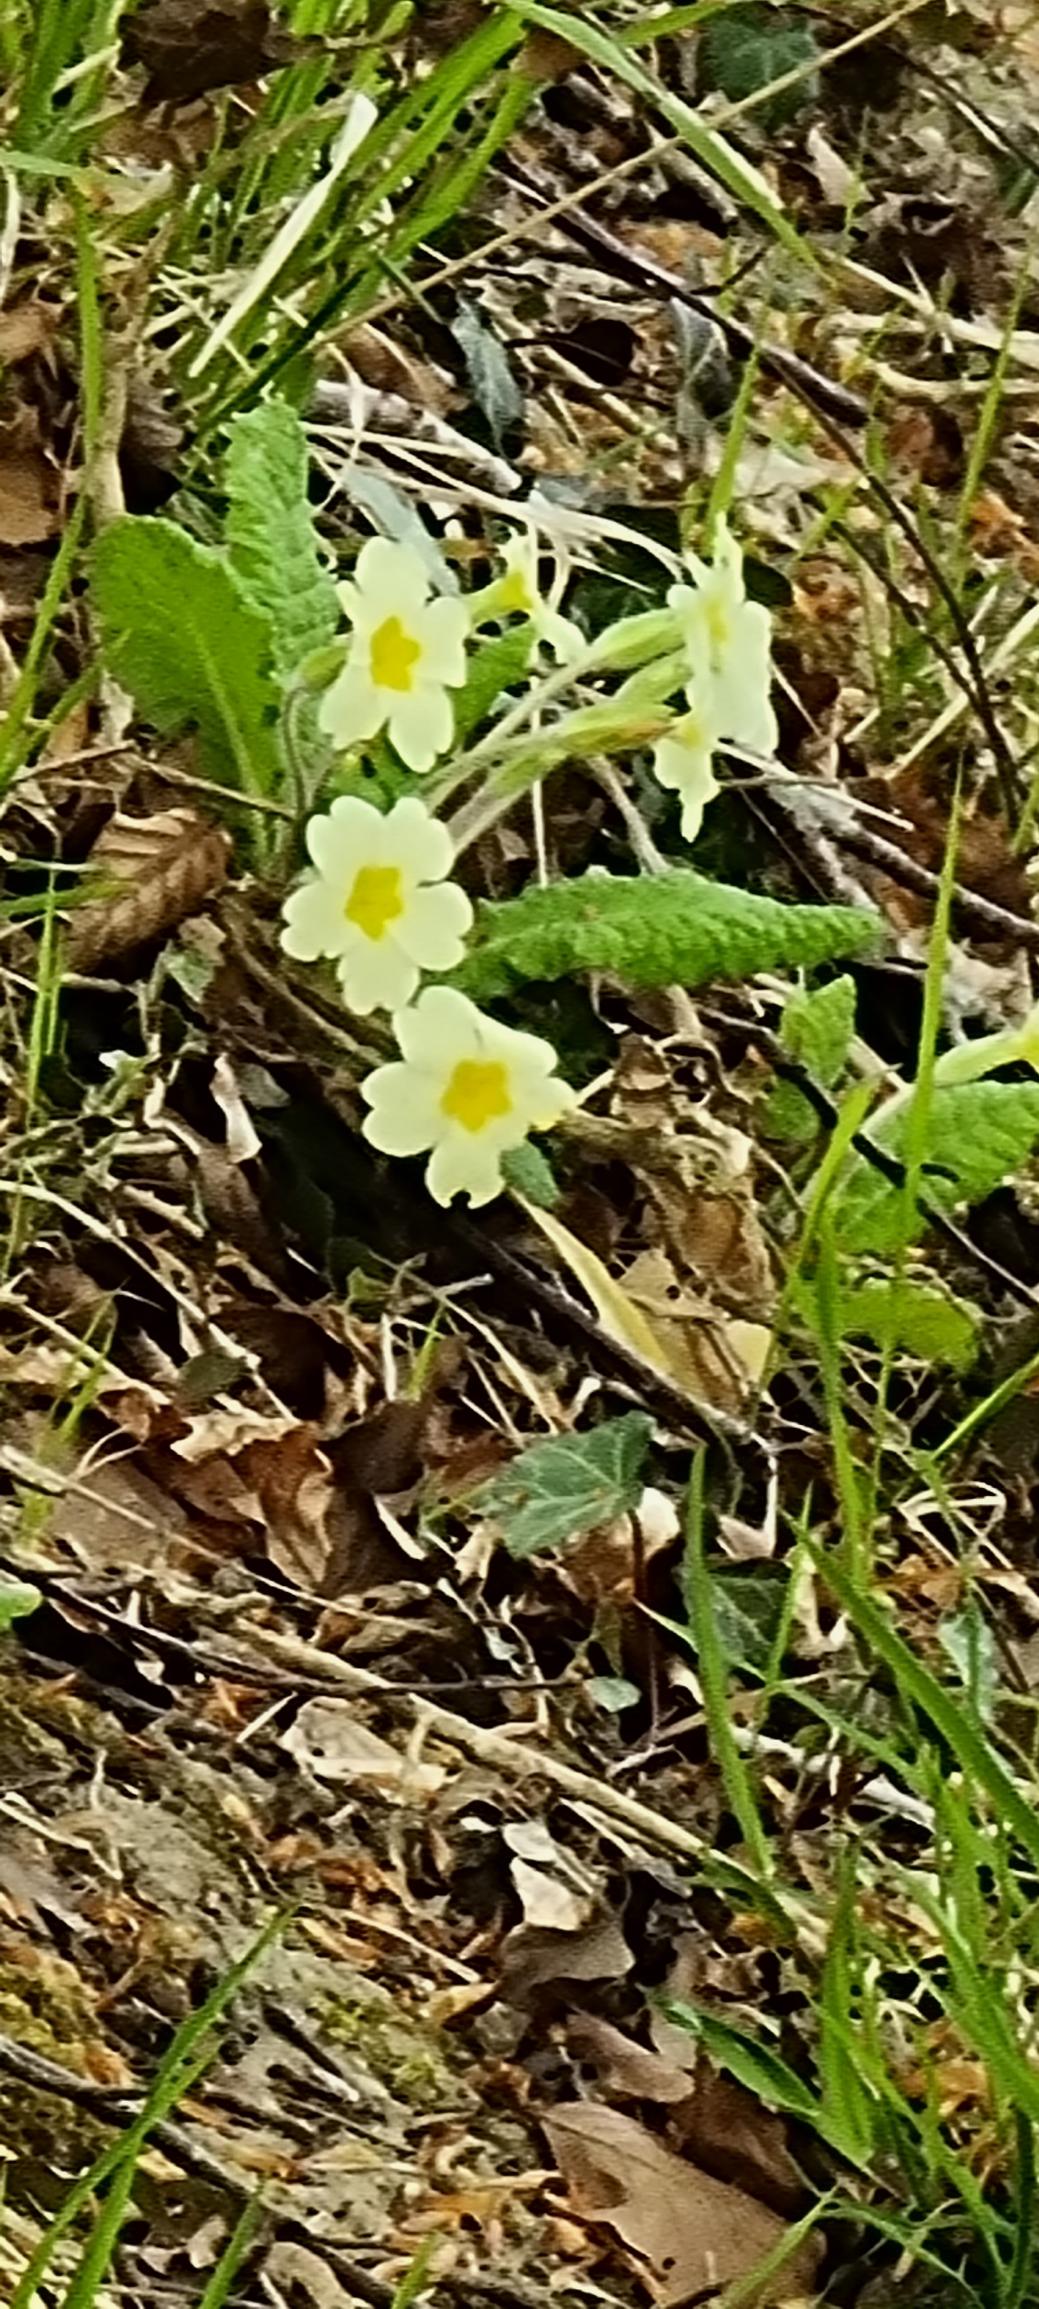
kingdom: Plantae
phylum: Tracheophyta
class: Magnoliopsida
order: Ericales
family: Primulaceae
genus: Primula
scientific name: Primula vulgaris
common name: Storblomstret kodriver
